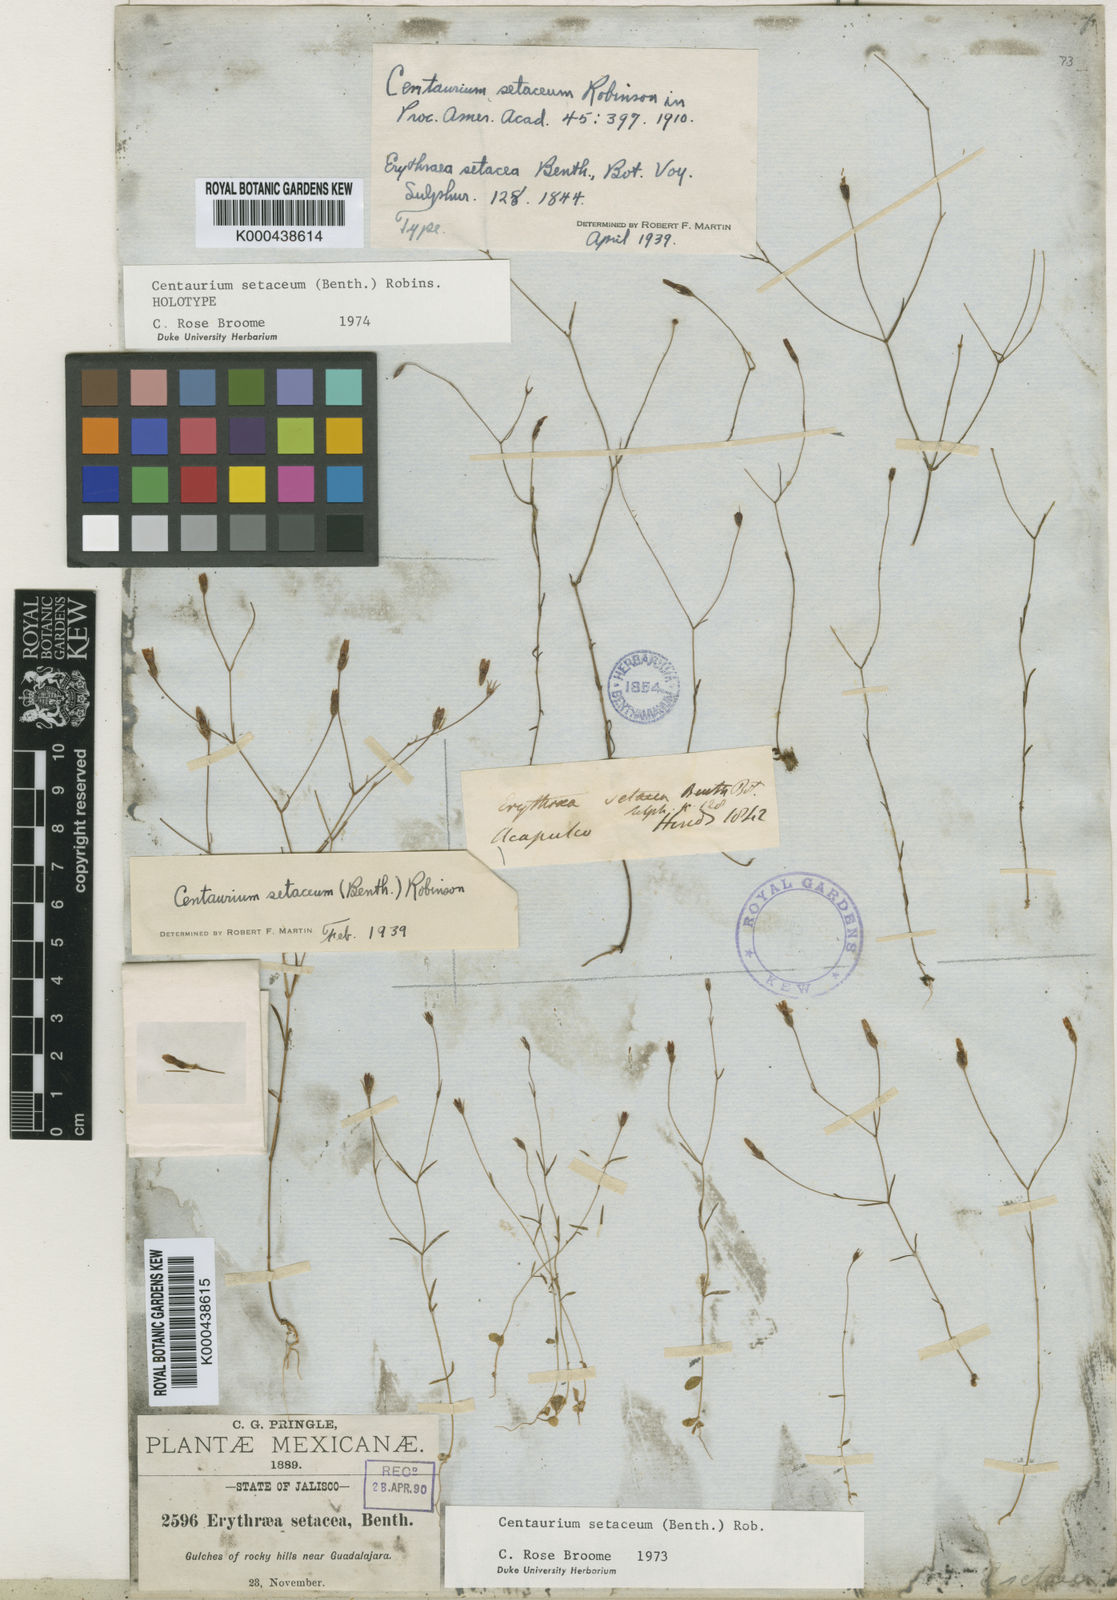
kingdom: Plantae
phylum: Tracheophyta
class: Magnoliopsida
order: Gentianales
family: Gentianaceae
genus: Zeltnera
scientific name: Zeltnera setacea
